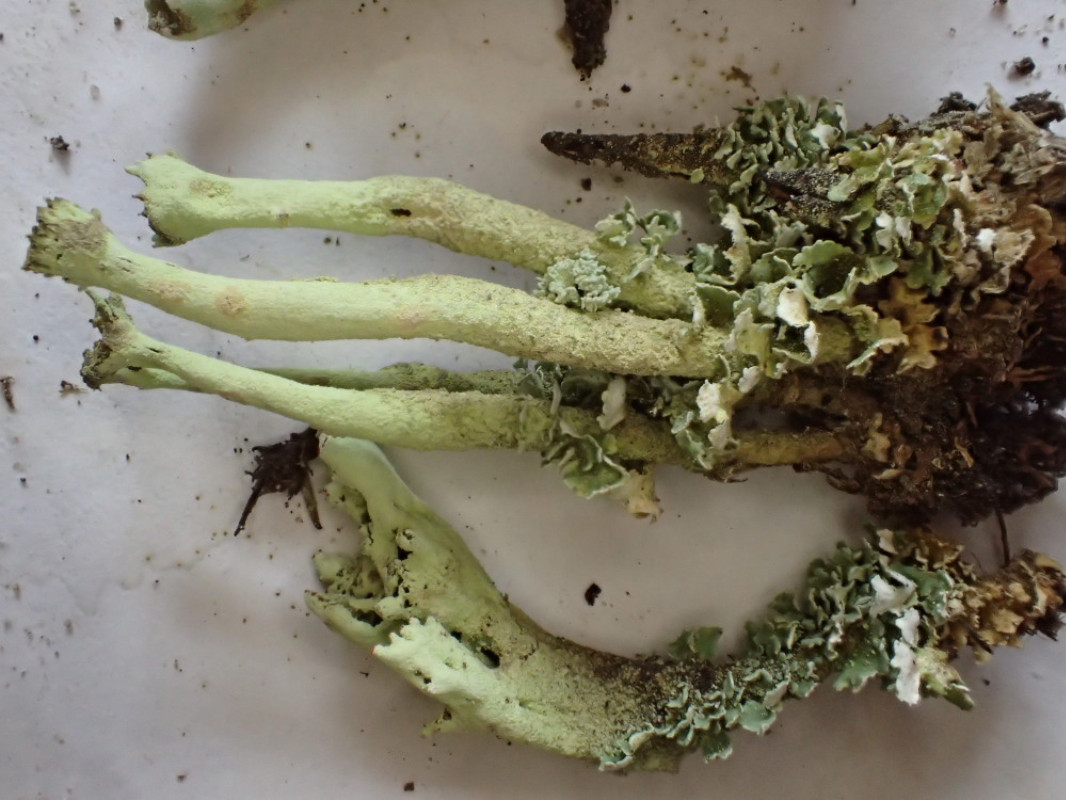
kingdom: Fungi
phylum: Ascomycota
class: Lecanoromycetes
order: Lecanorales
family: Cladoniaceae
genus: Cladonia
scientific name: Cladonia sulphurina
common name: opblæst bægerlav
